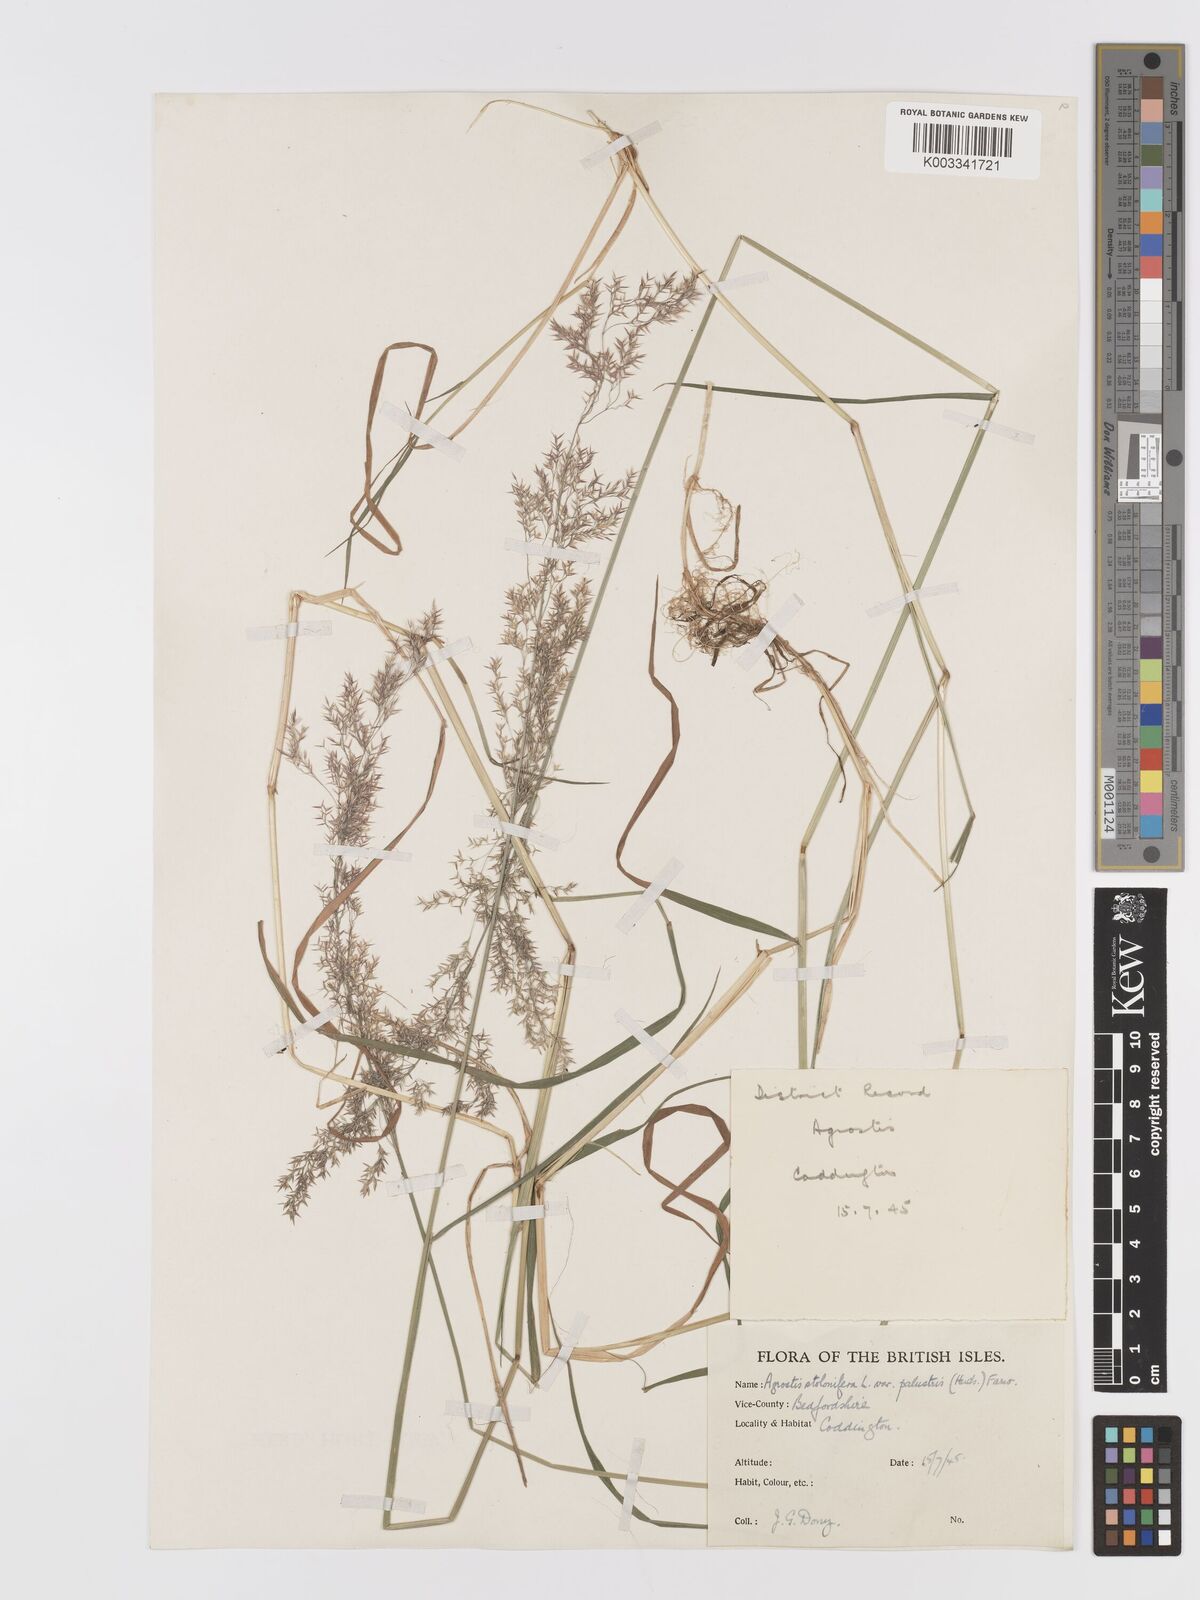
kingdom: Plantae
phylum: Tracheophyta
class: Liliopsida
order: Poales
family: Poaceae
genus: Agrostis
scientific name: Agrostis stolonifera
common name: Creeping bentgrass
